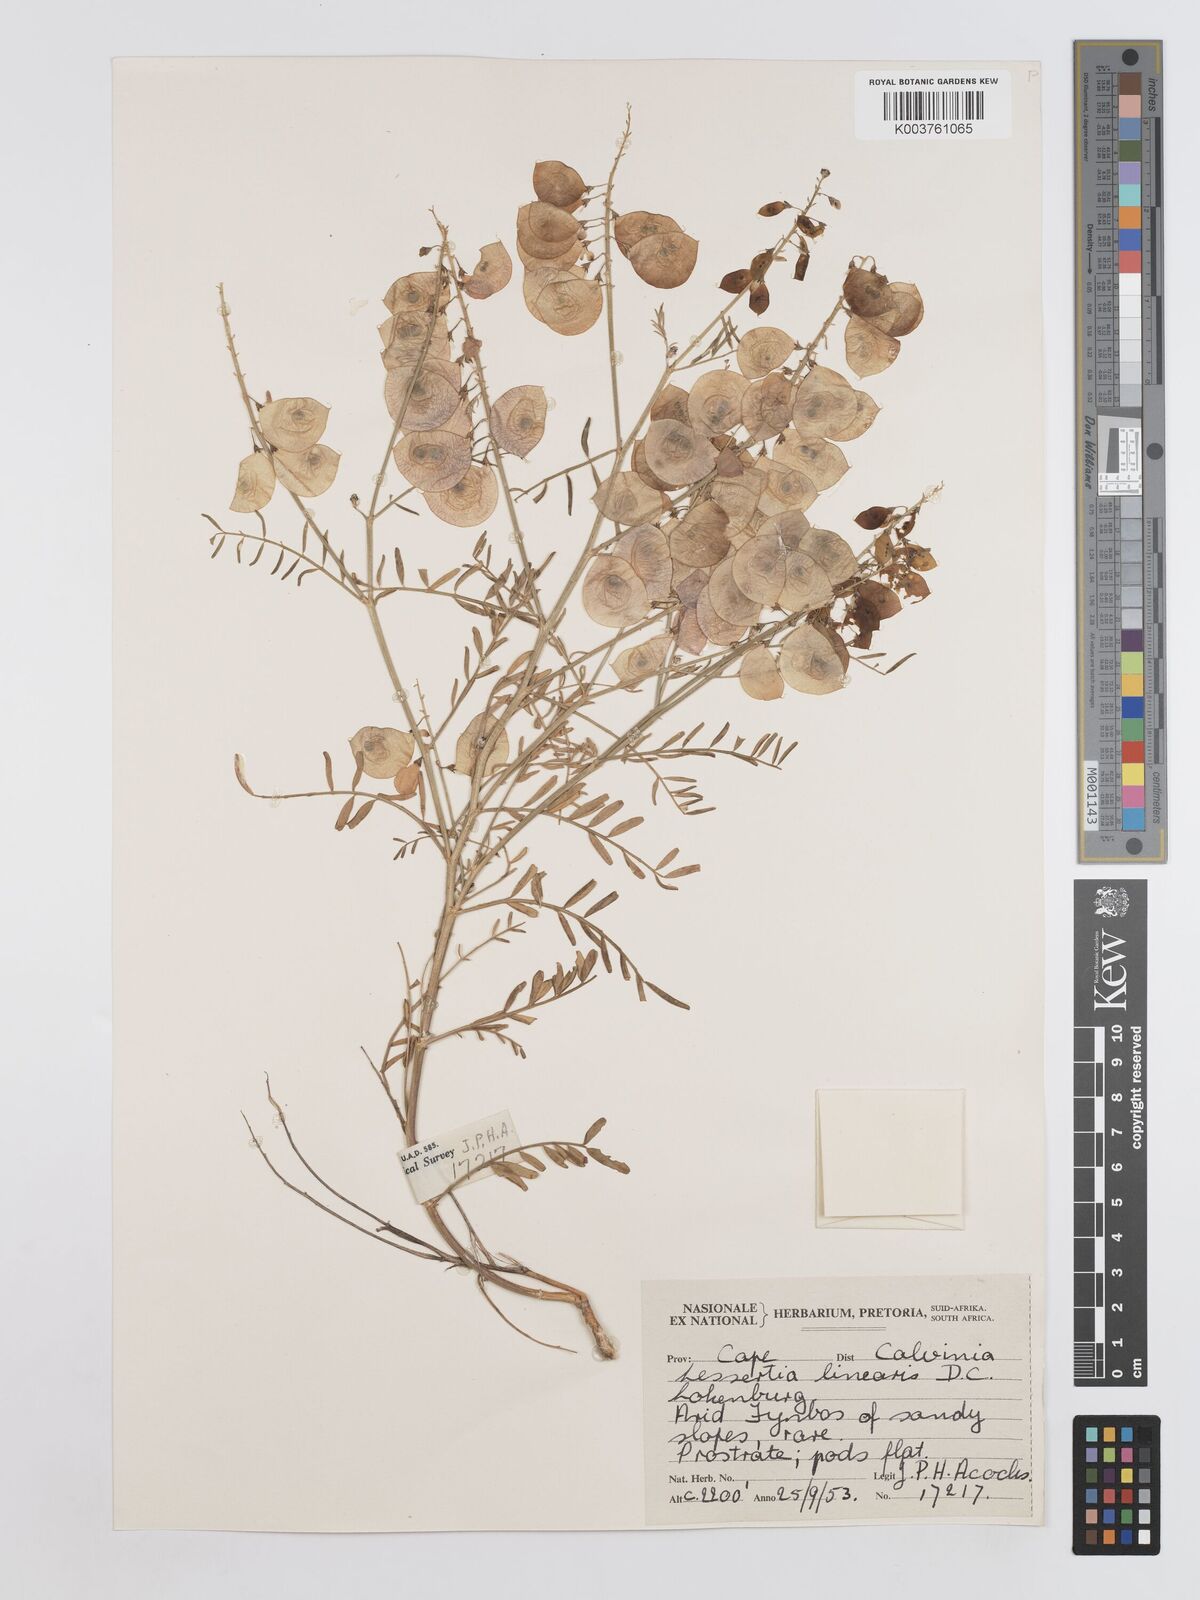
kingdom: Plantae
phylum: Tracheophyta
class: Magnoliopsida
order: Fabales
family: Fabaceae
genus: Lessertia
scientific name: Lessertia herbacea
